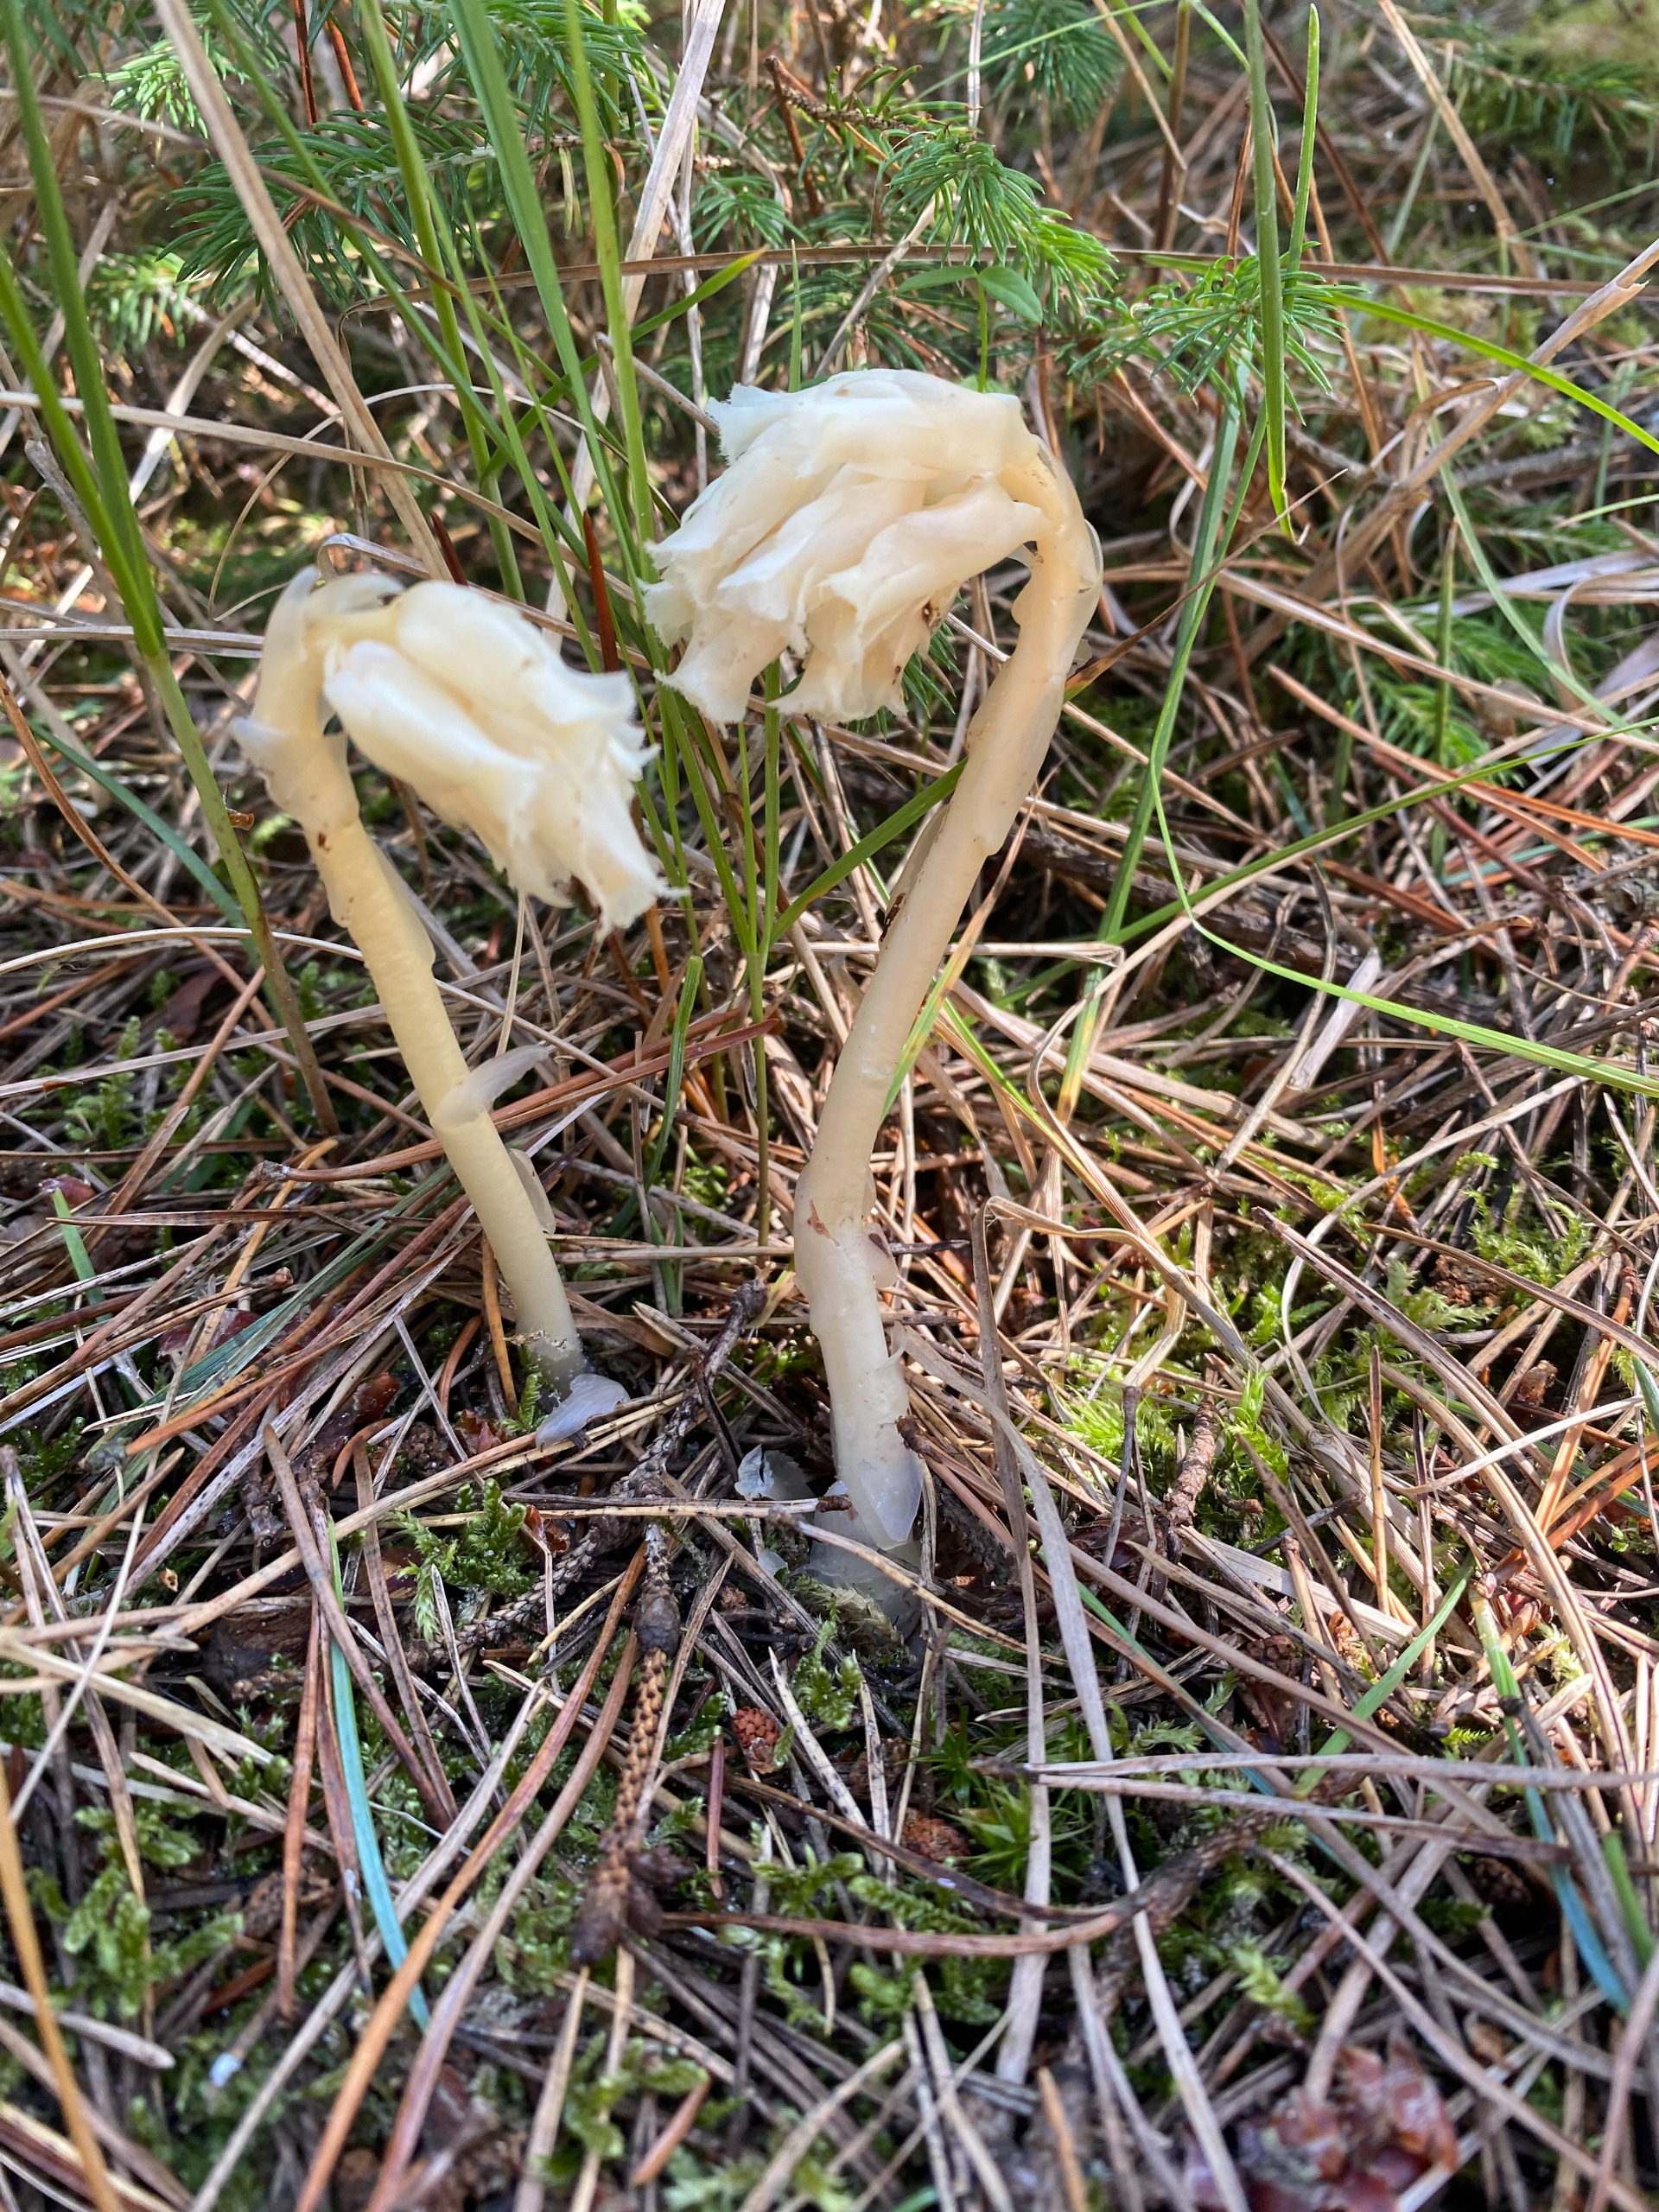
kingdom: Plantae
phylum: Tracheophyta
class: Magnoliopsida
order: Ericales
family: Ericaceae
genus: Hypopitys
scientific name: Hypopitys monotropa
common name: Snylterod
